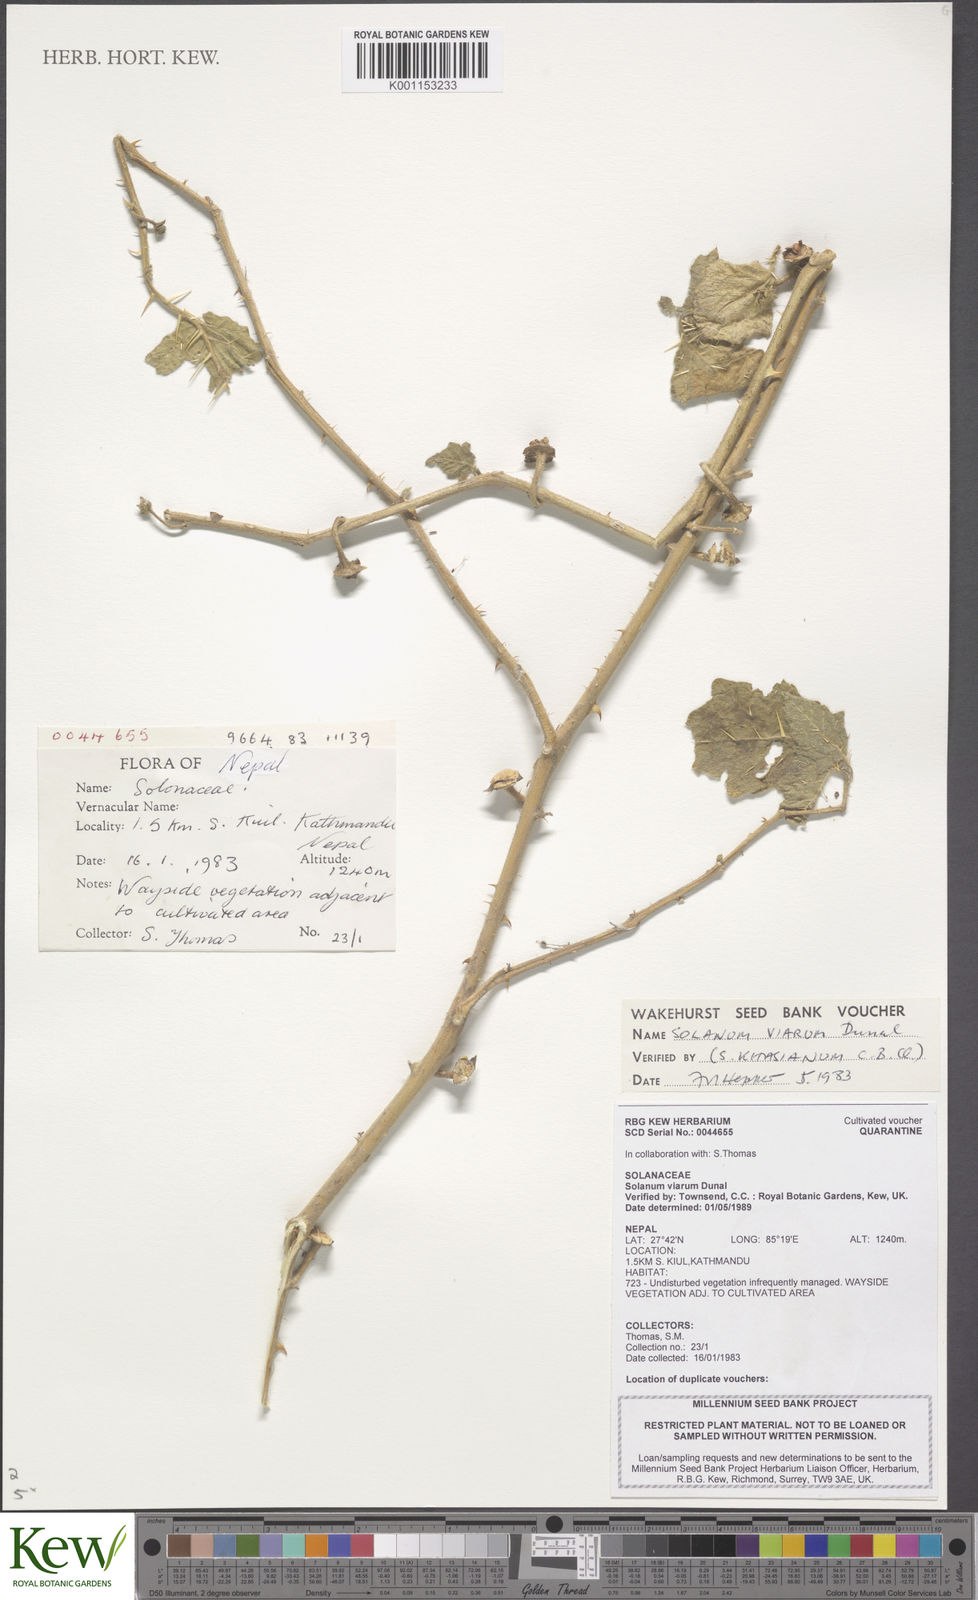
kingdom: Plantae
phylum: Tracheophyta
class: Magnoliopsida
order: Solanales
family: Solanaceae
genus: Solanum
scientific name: Solanum viarum
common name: Tropical soda apple
